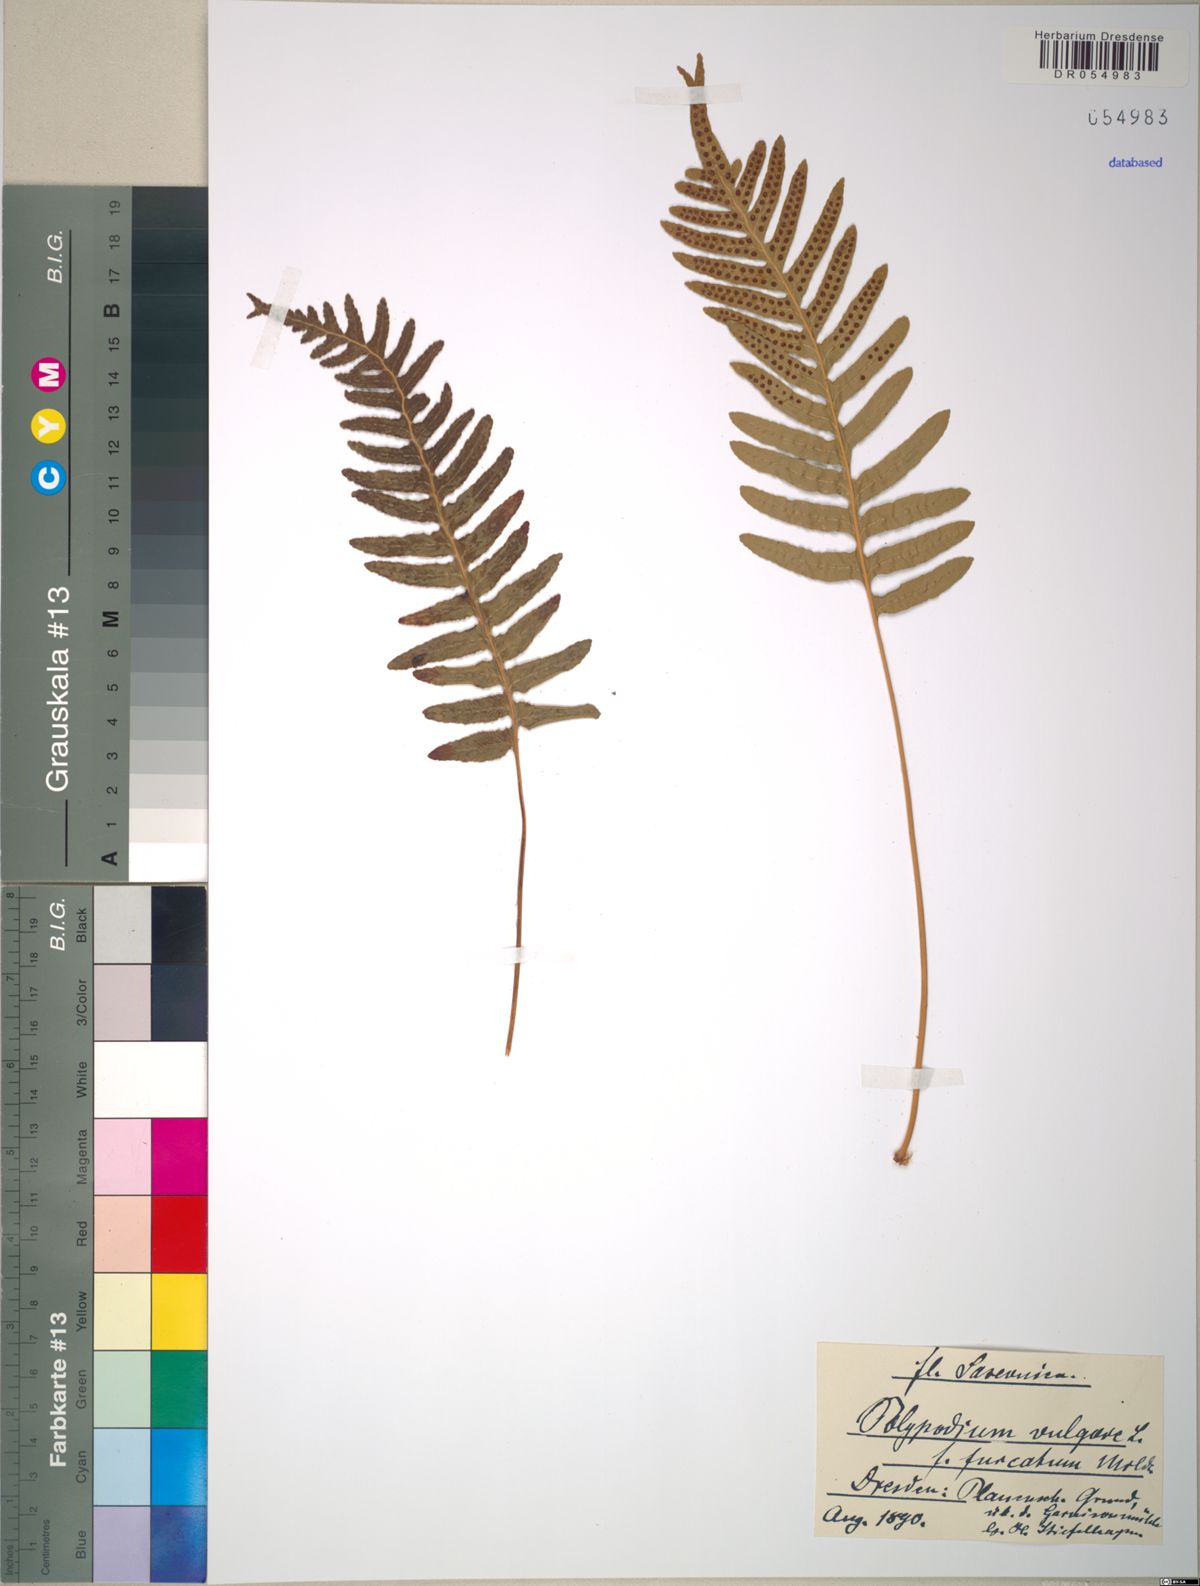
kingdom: Plantae
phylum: Tracheophyta
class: Polypodiopsida
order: Polypodiales
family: Polypodiaceae
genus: Polypodium
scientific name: Polypodium vulgare
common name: Common polypody
